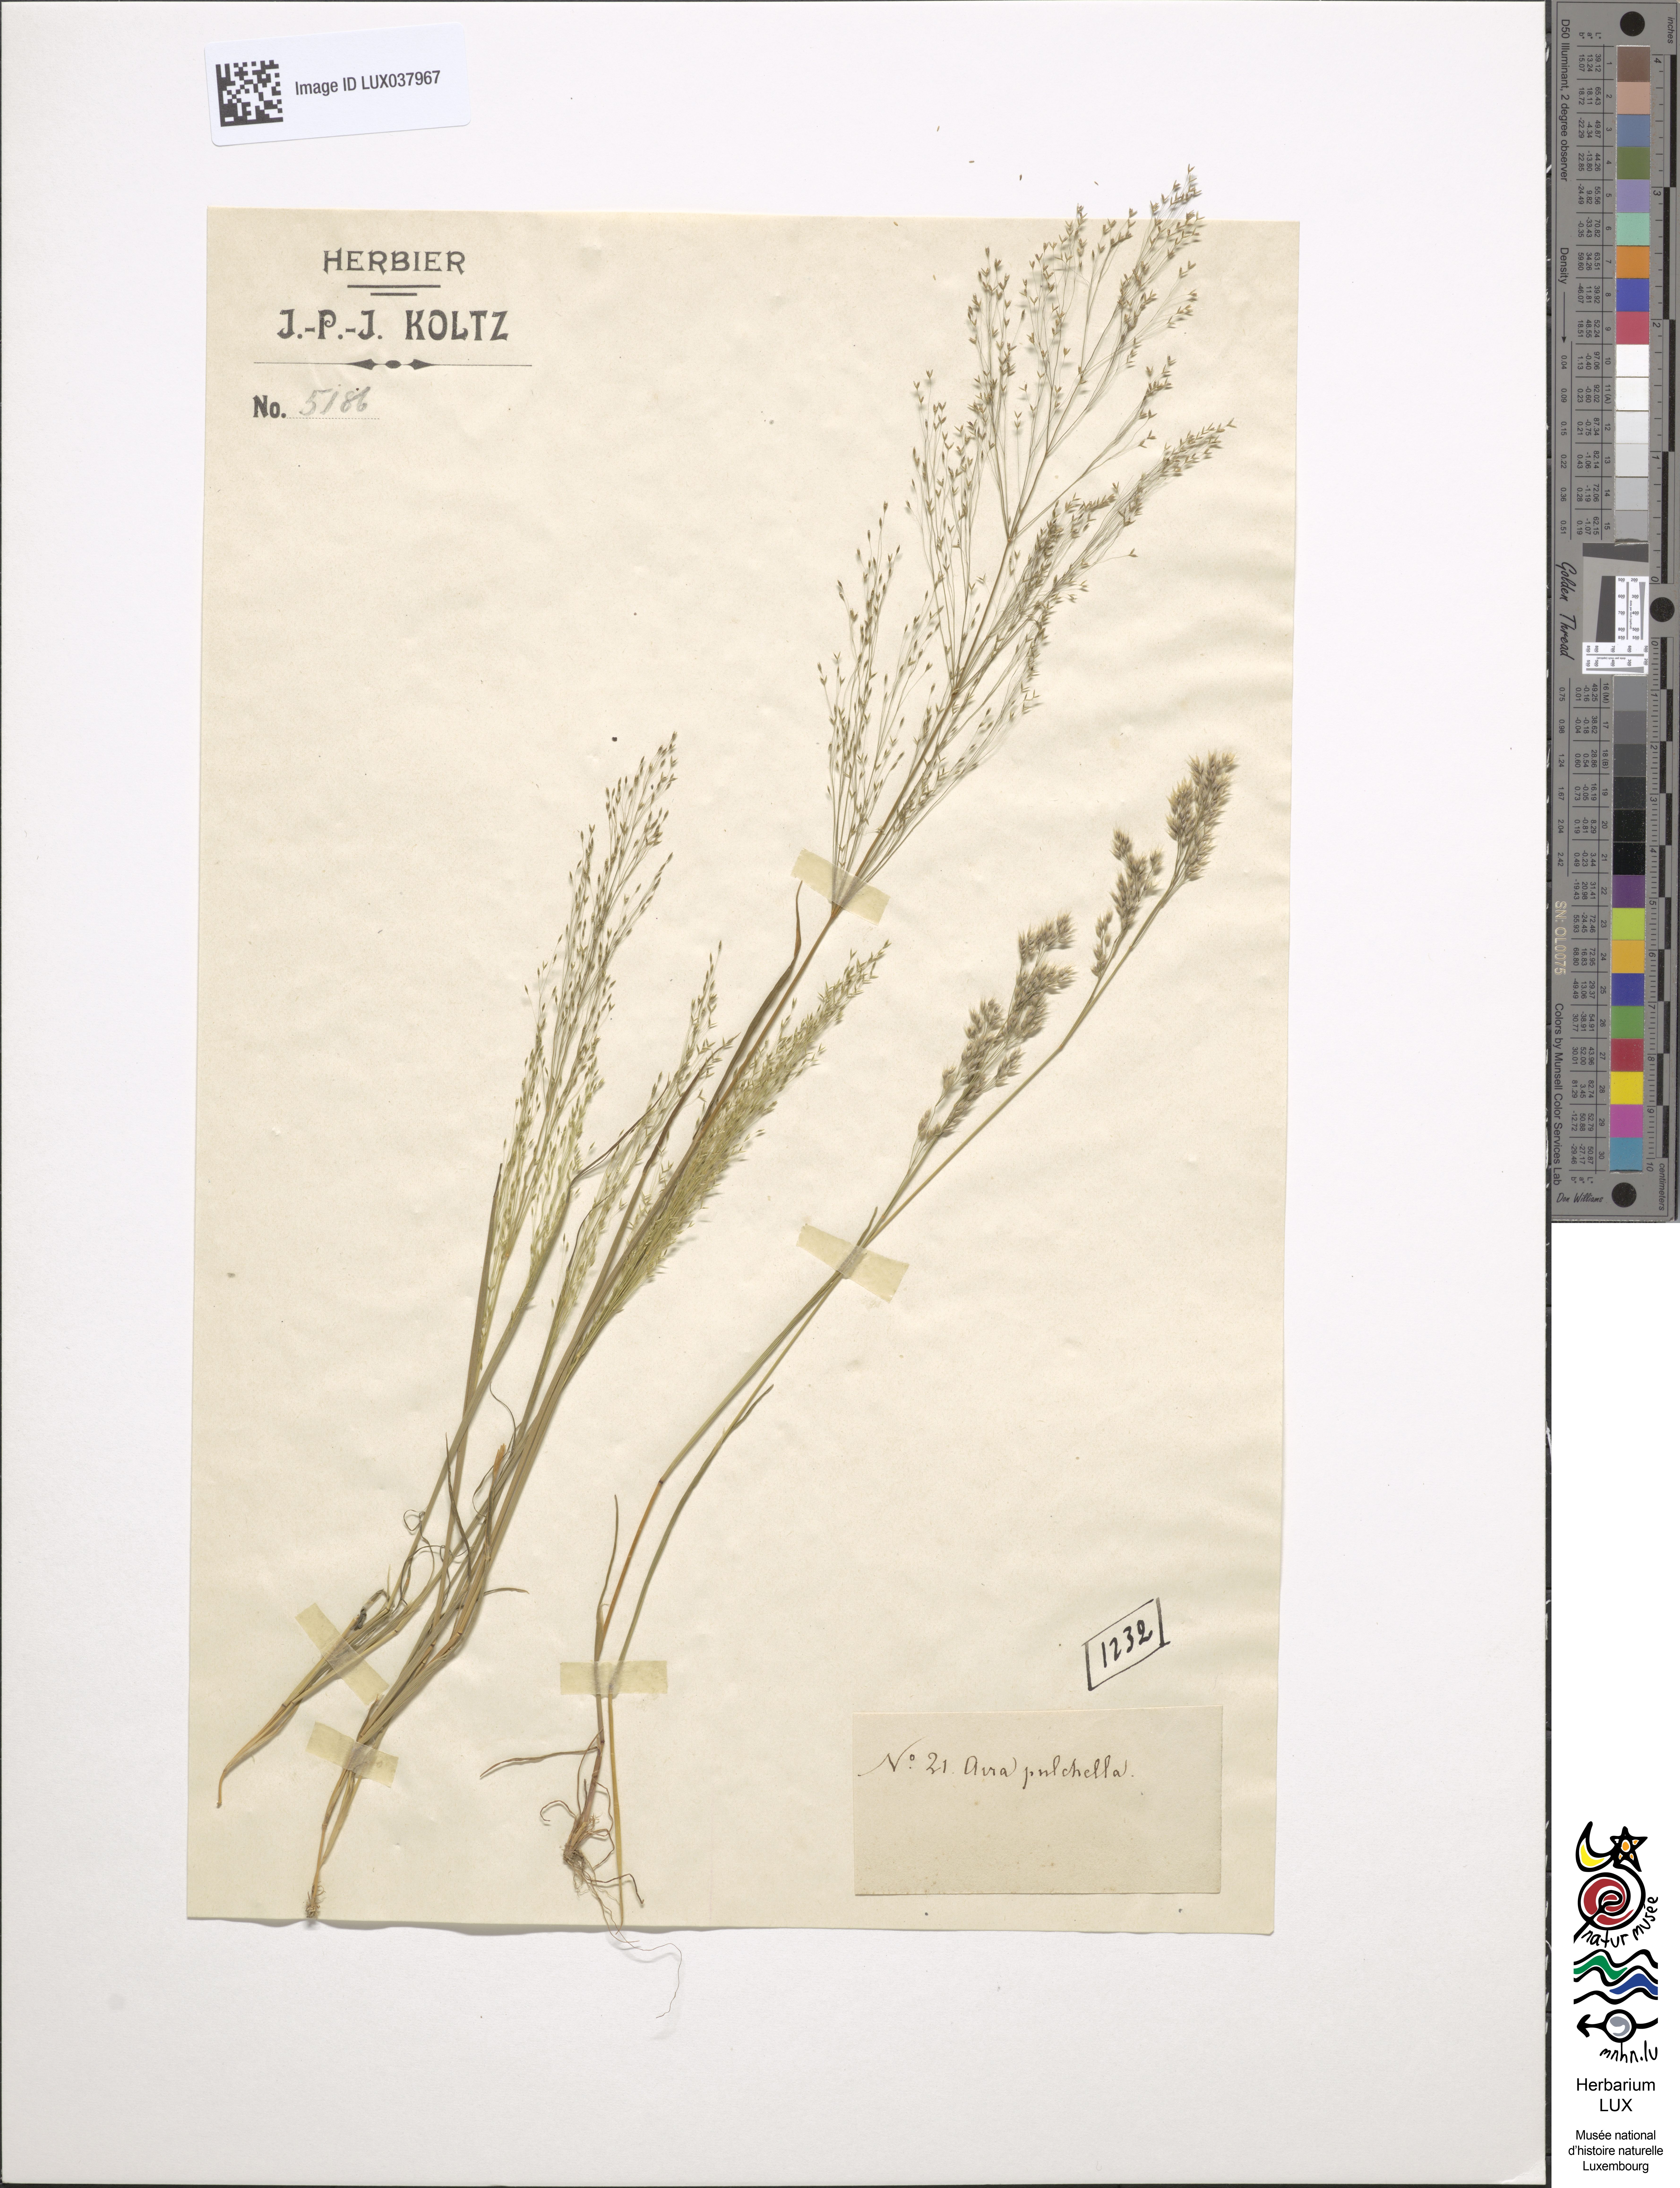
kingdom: Plantae
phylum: Tracheophyta
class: Liliopsida
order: Poales
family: Poaceae
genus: Aira
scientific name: Aira tenorei
